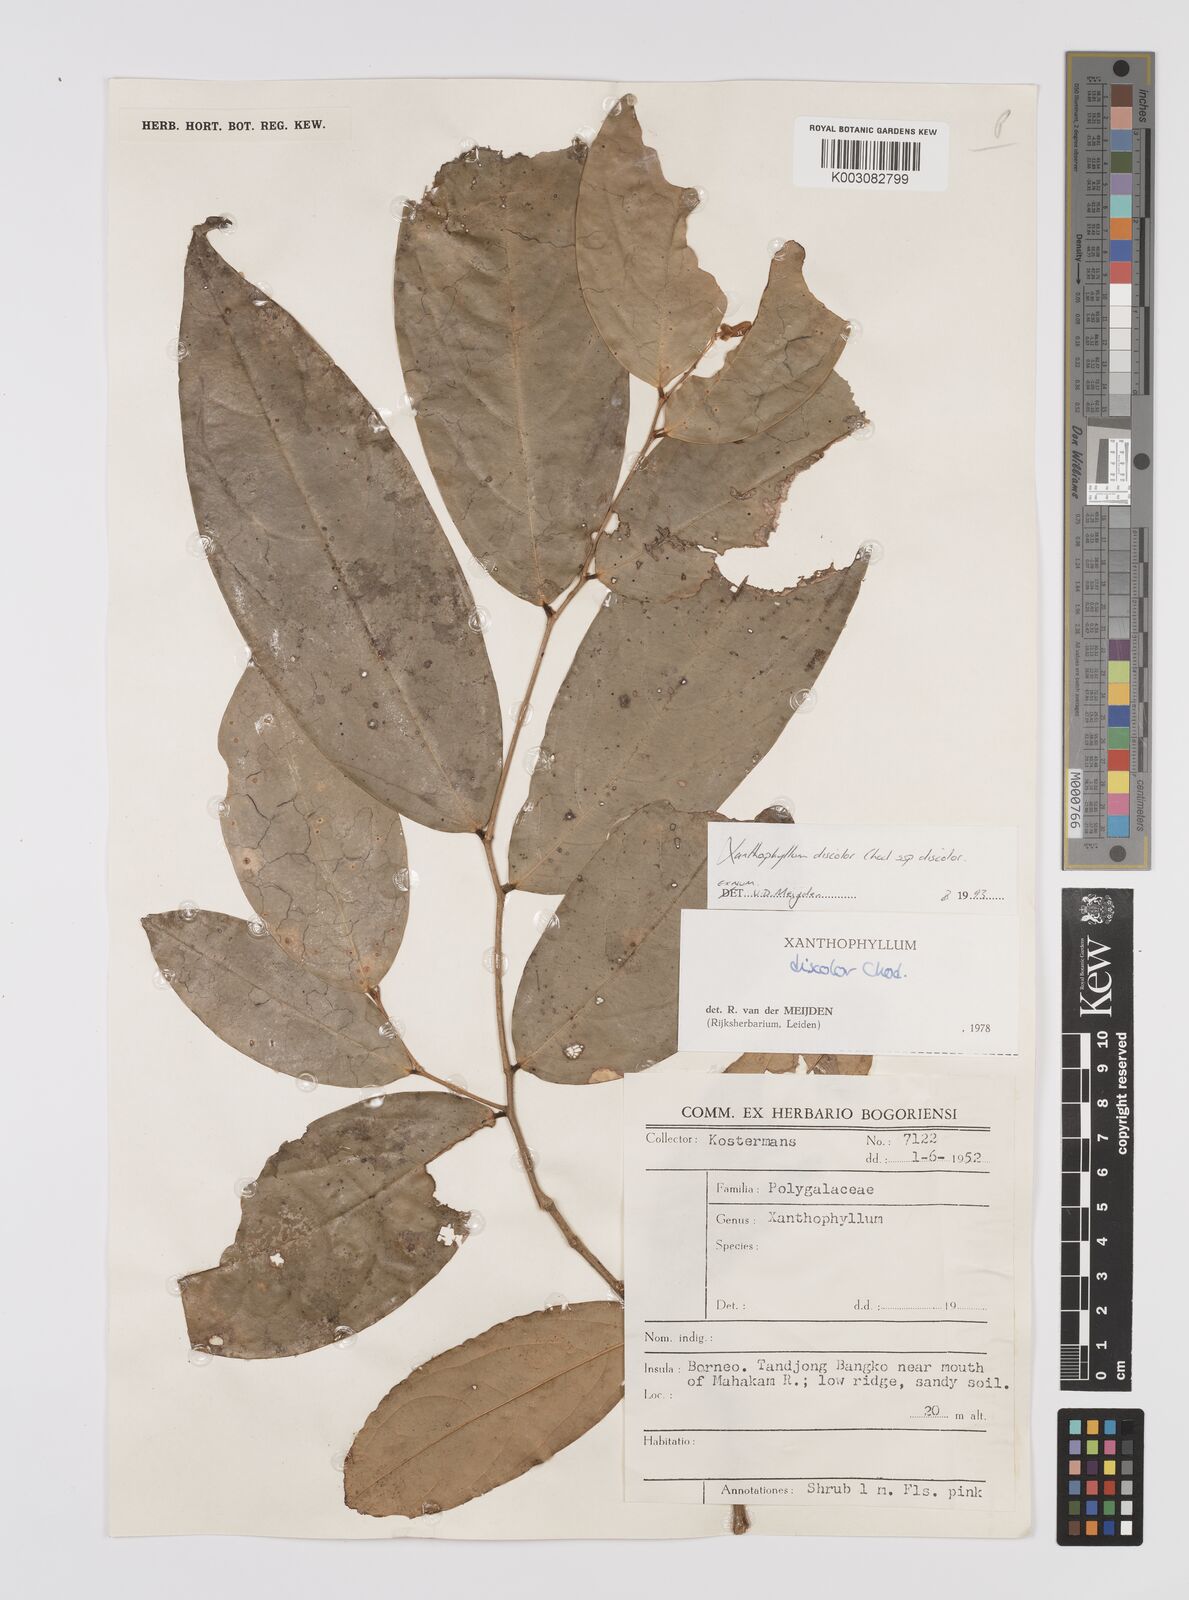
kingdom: Plantae
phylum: Tracheophyta
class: Magnoliopsida
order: Fabales
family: Polygalaceae
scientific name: Polygalaceae
